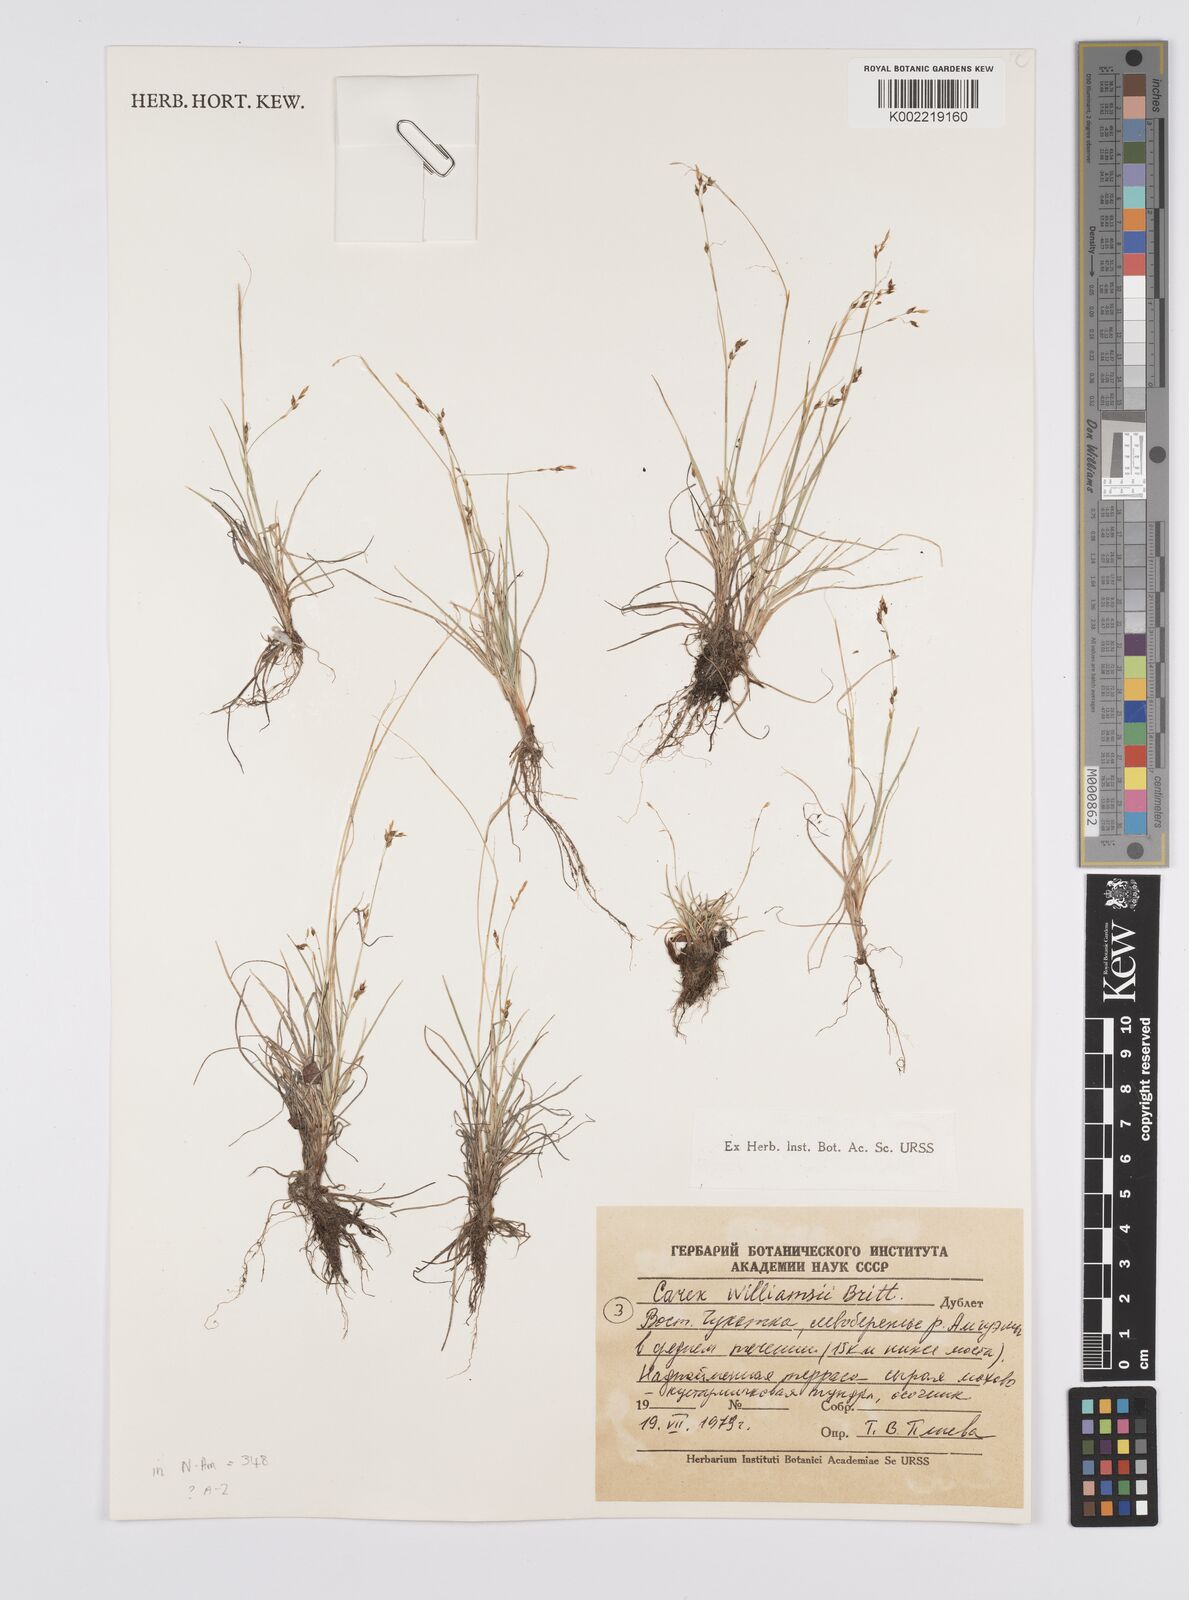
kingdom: Plantae
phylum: Tracheophyta
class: Liliopsida
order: Poales
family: Cyperaceae
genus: Carex
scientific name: Carex williamsii
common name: Williams' sedge
